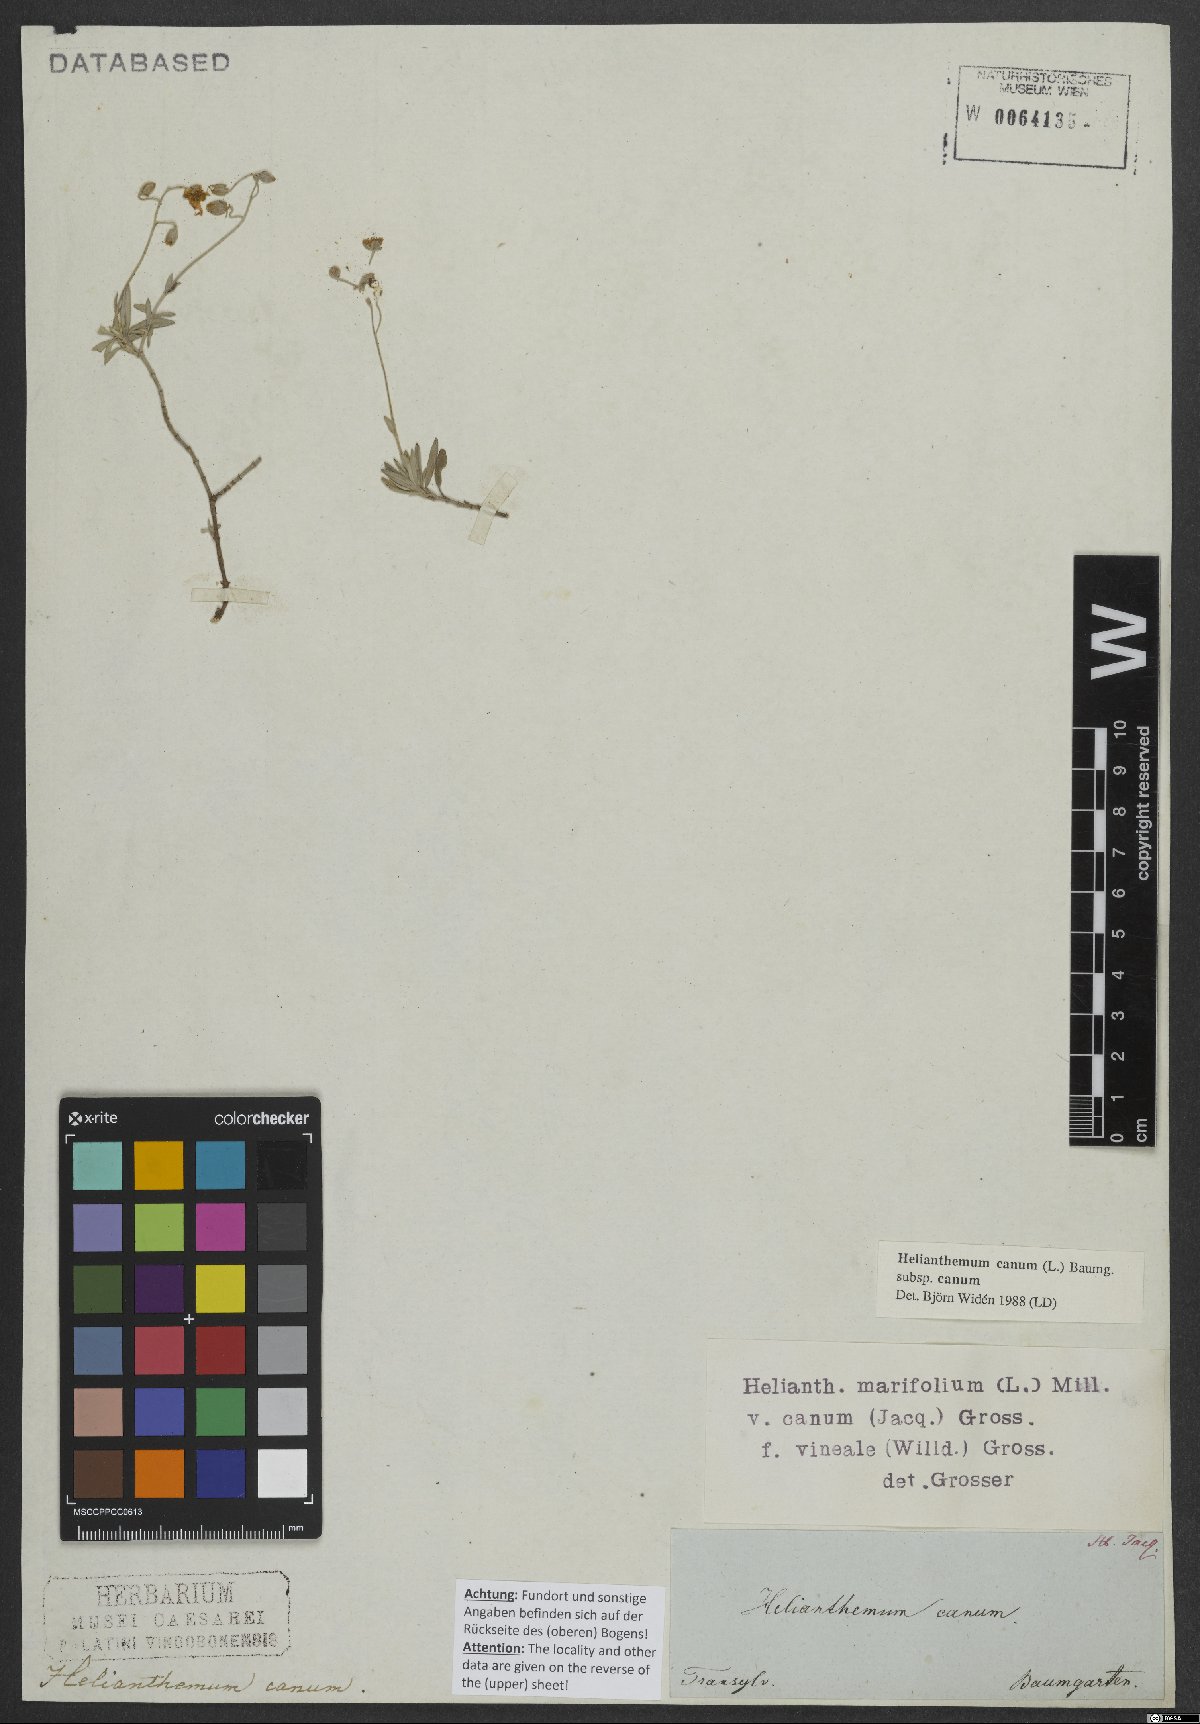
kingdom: Plantae
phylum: Tracheophyta
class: Magnoliopsida
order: Malvales
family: Cistaceae
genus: Helianthemum
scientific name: Helianthemum canum
